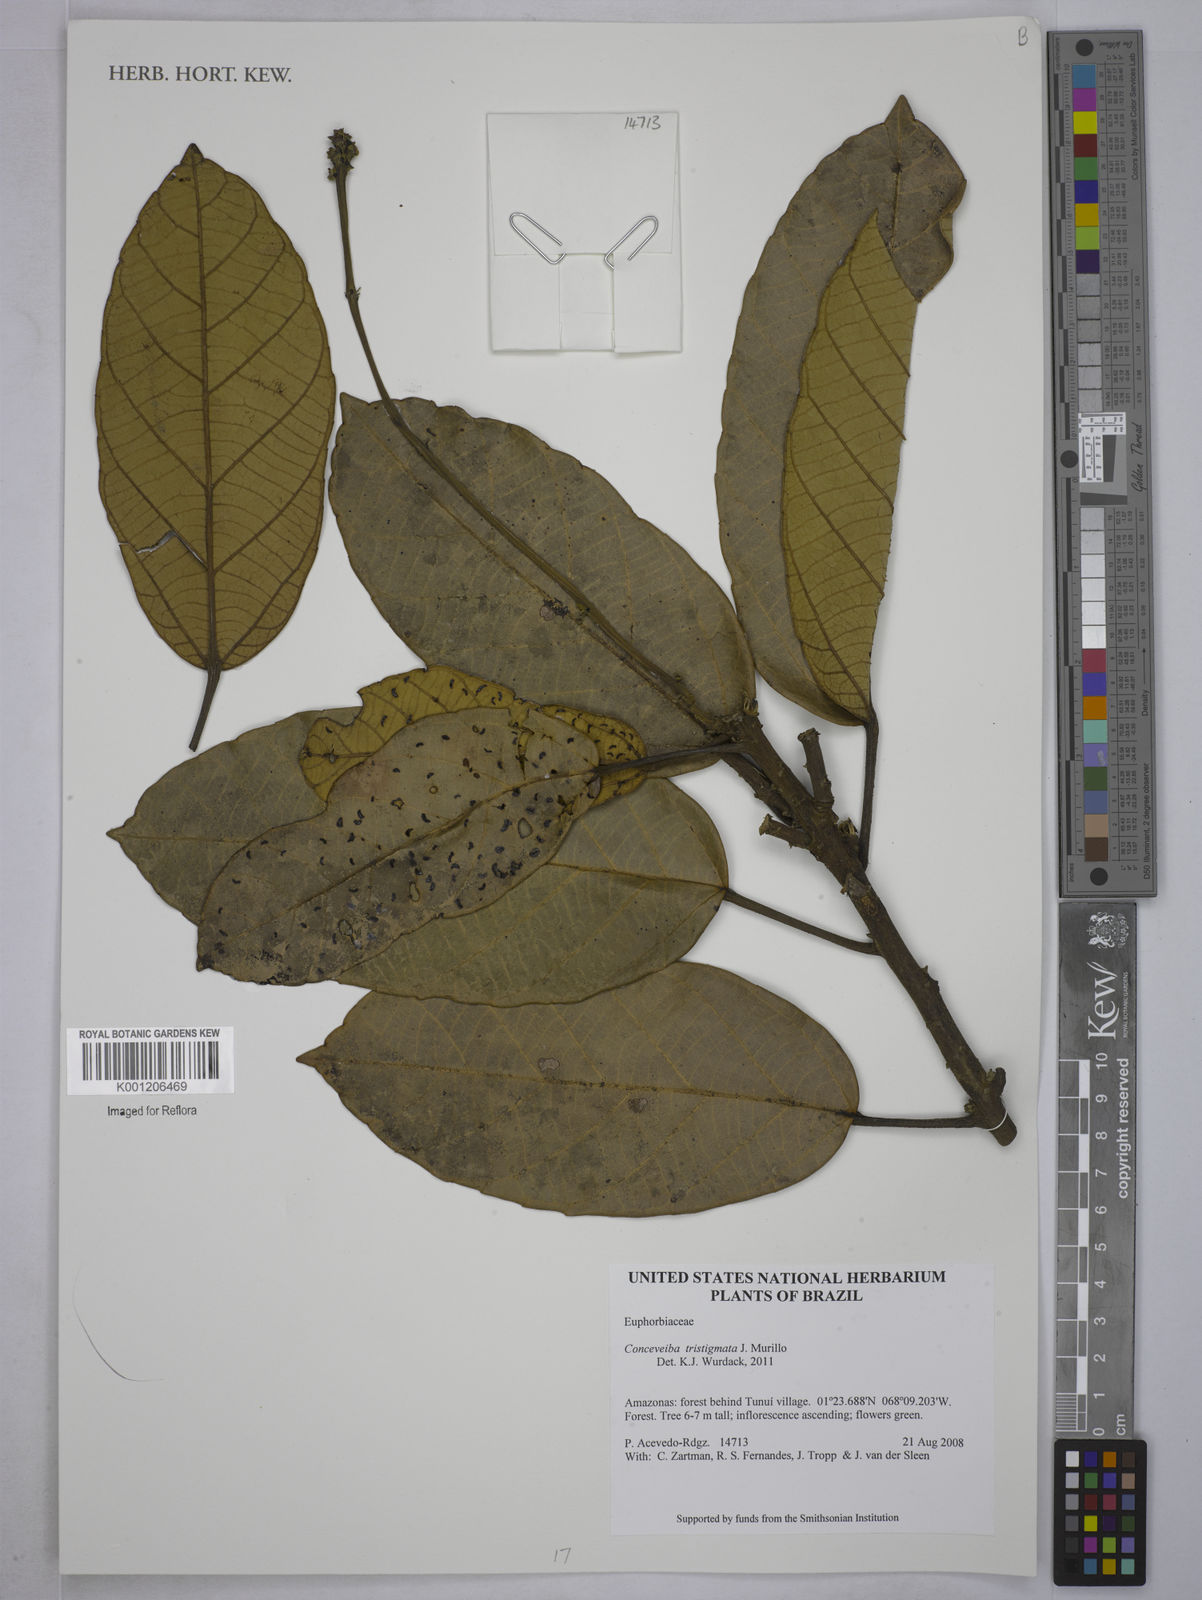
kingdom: Plantae
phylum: Tracheophyta
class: Magnoliopsida
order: Malpighiales
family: Euphorbiaceae
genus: Conceveiba
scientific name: Conceveiba tristigmata
